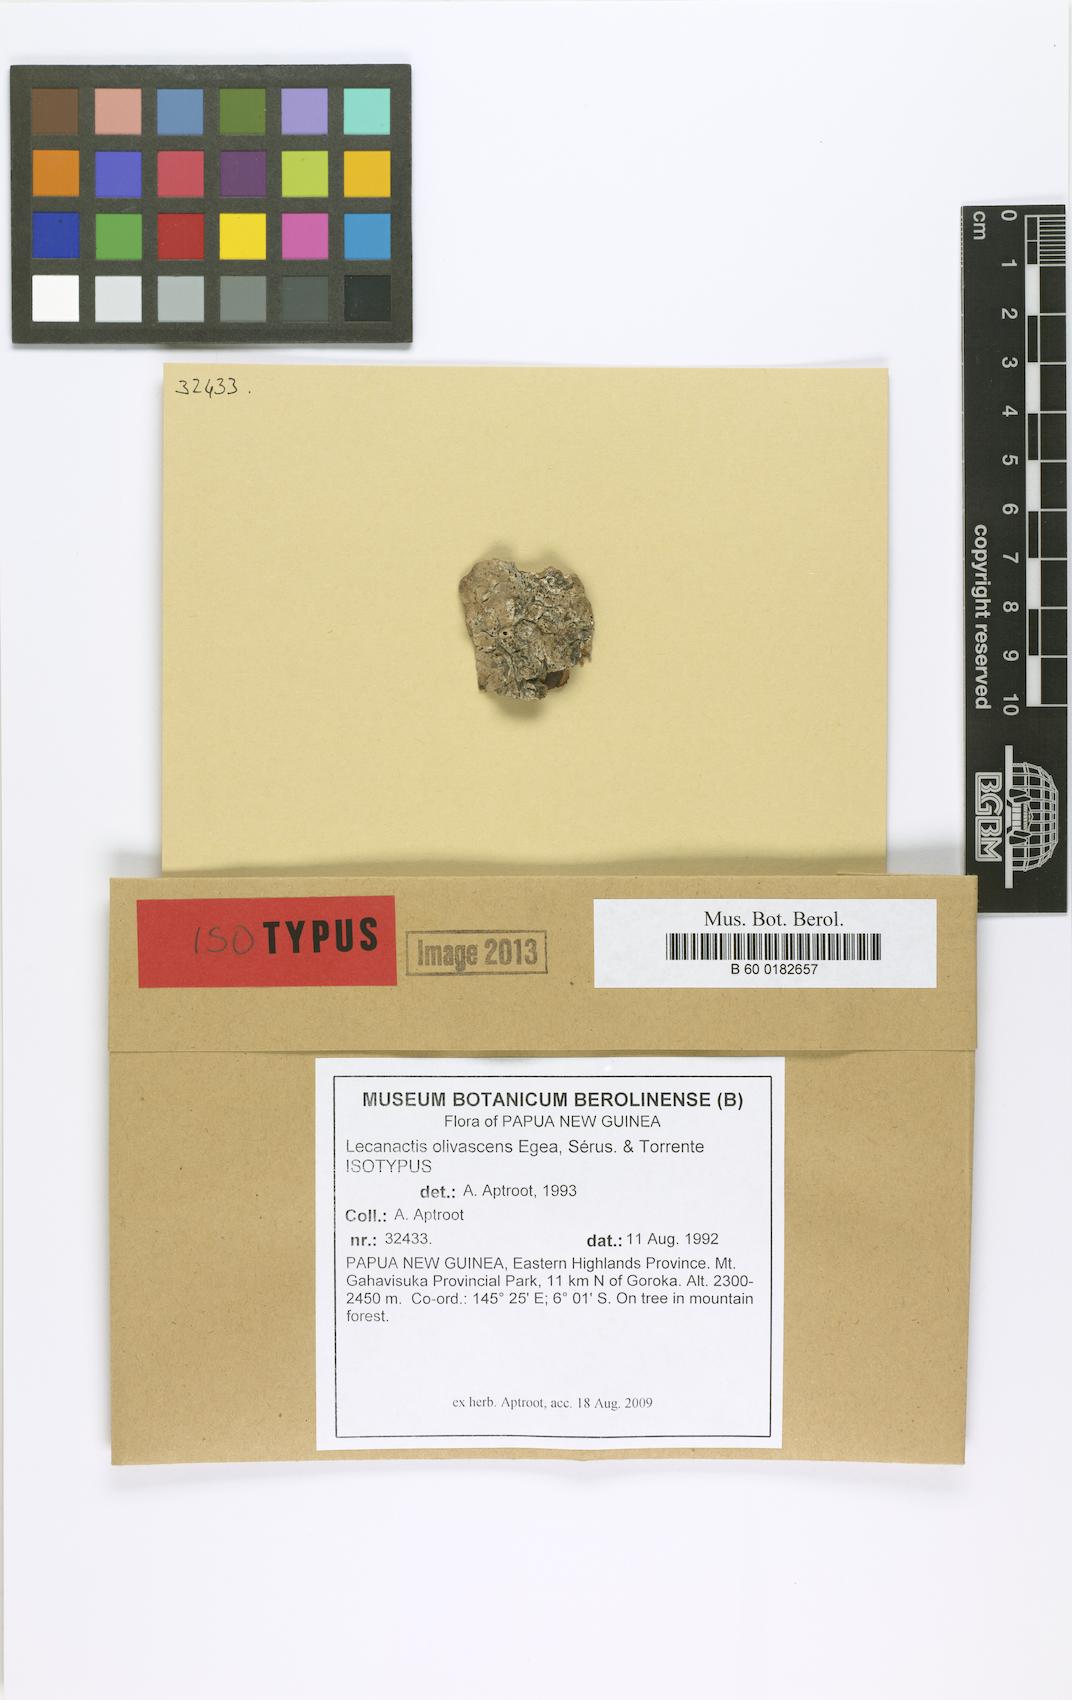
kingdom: Fungi
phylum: Ascomycota
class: Arthoniomycetes
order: Arthoniales
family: Roccellaceae
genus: Lecanactis
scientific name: Lecanactis
